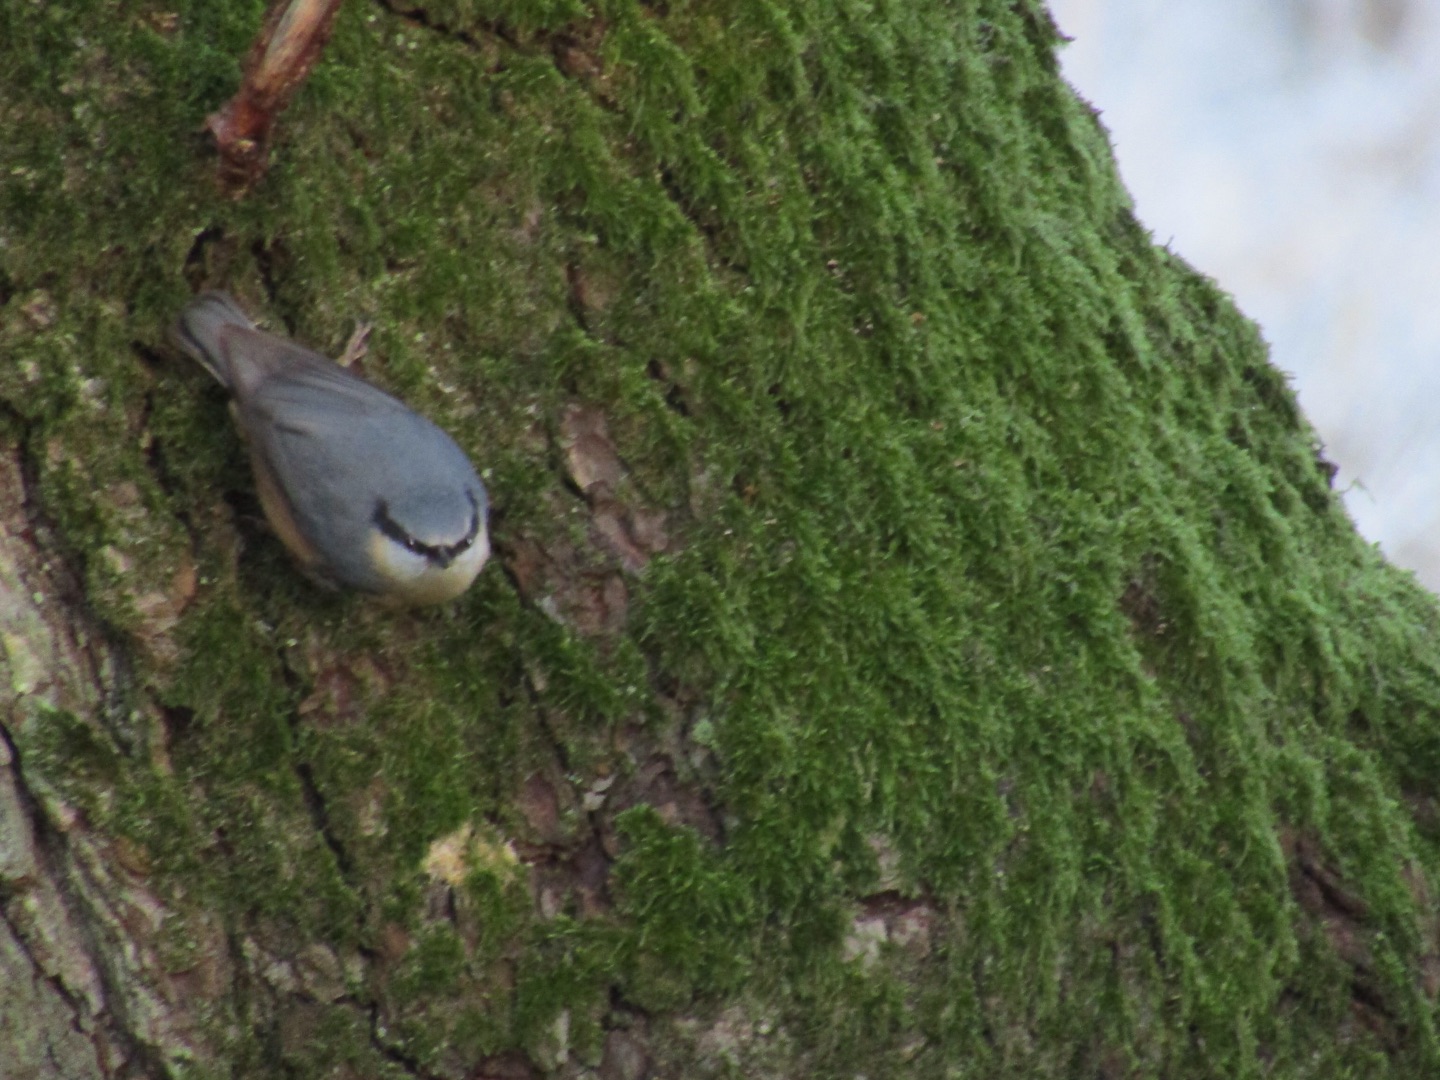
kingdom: Animalia
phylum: Chordata
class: Aves
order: Passeriformes
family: Sittidae
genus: Sitta
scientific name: Sitta europaea
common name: Spætmejse
